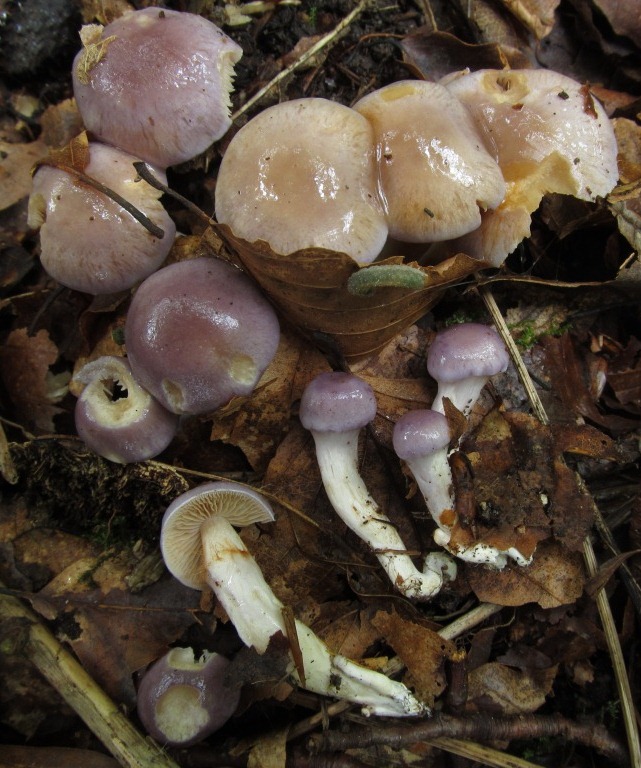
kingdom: Fungi
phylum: Basidiomycota
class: Agaricomycetes
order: Agaricales
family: Cortinariaceae
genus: Thaxterogaster
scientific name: Thaxterogaster croceocoeruleus
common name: blågullig slørhat
